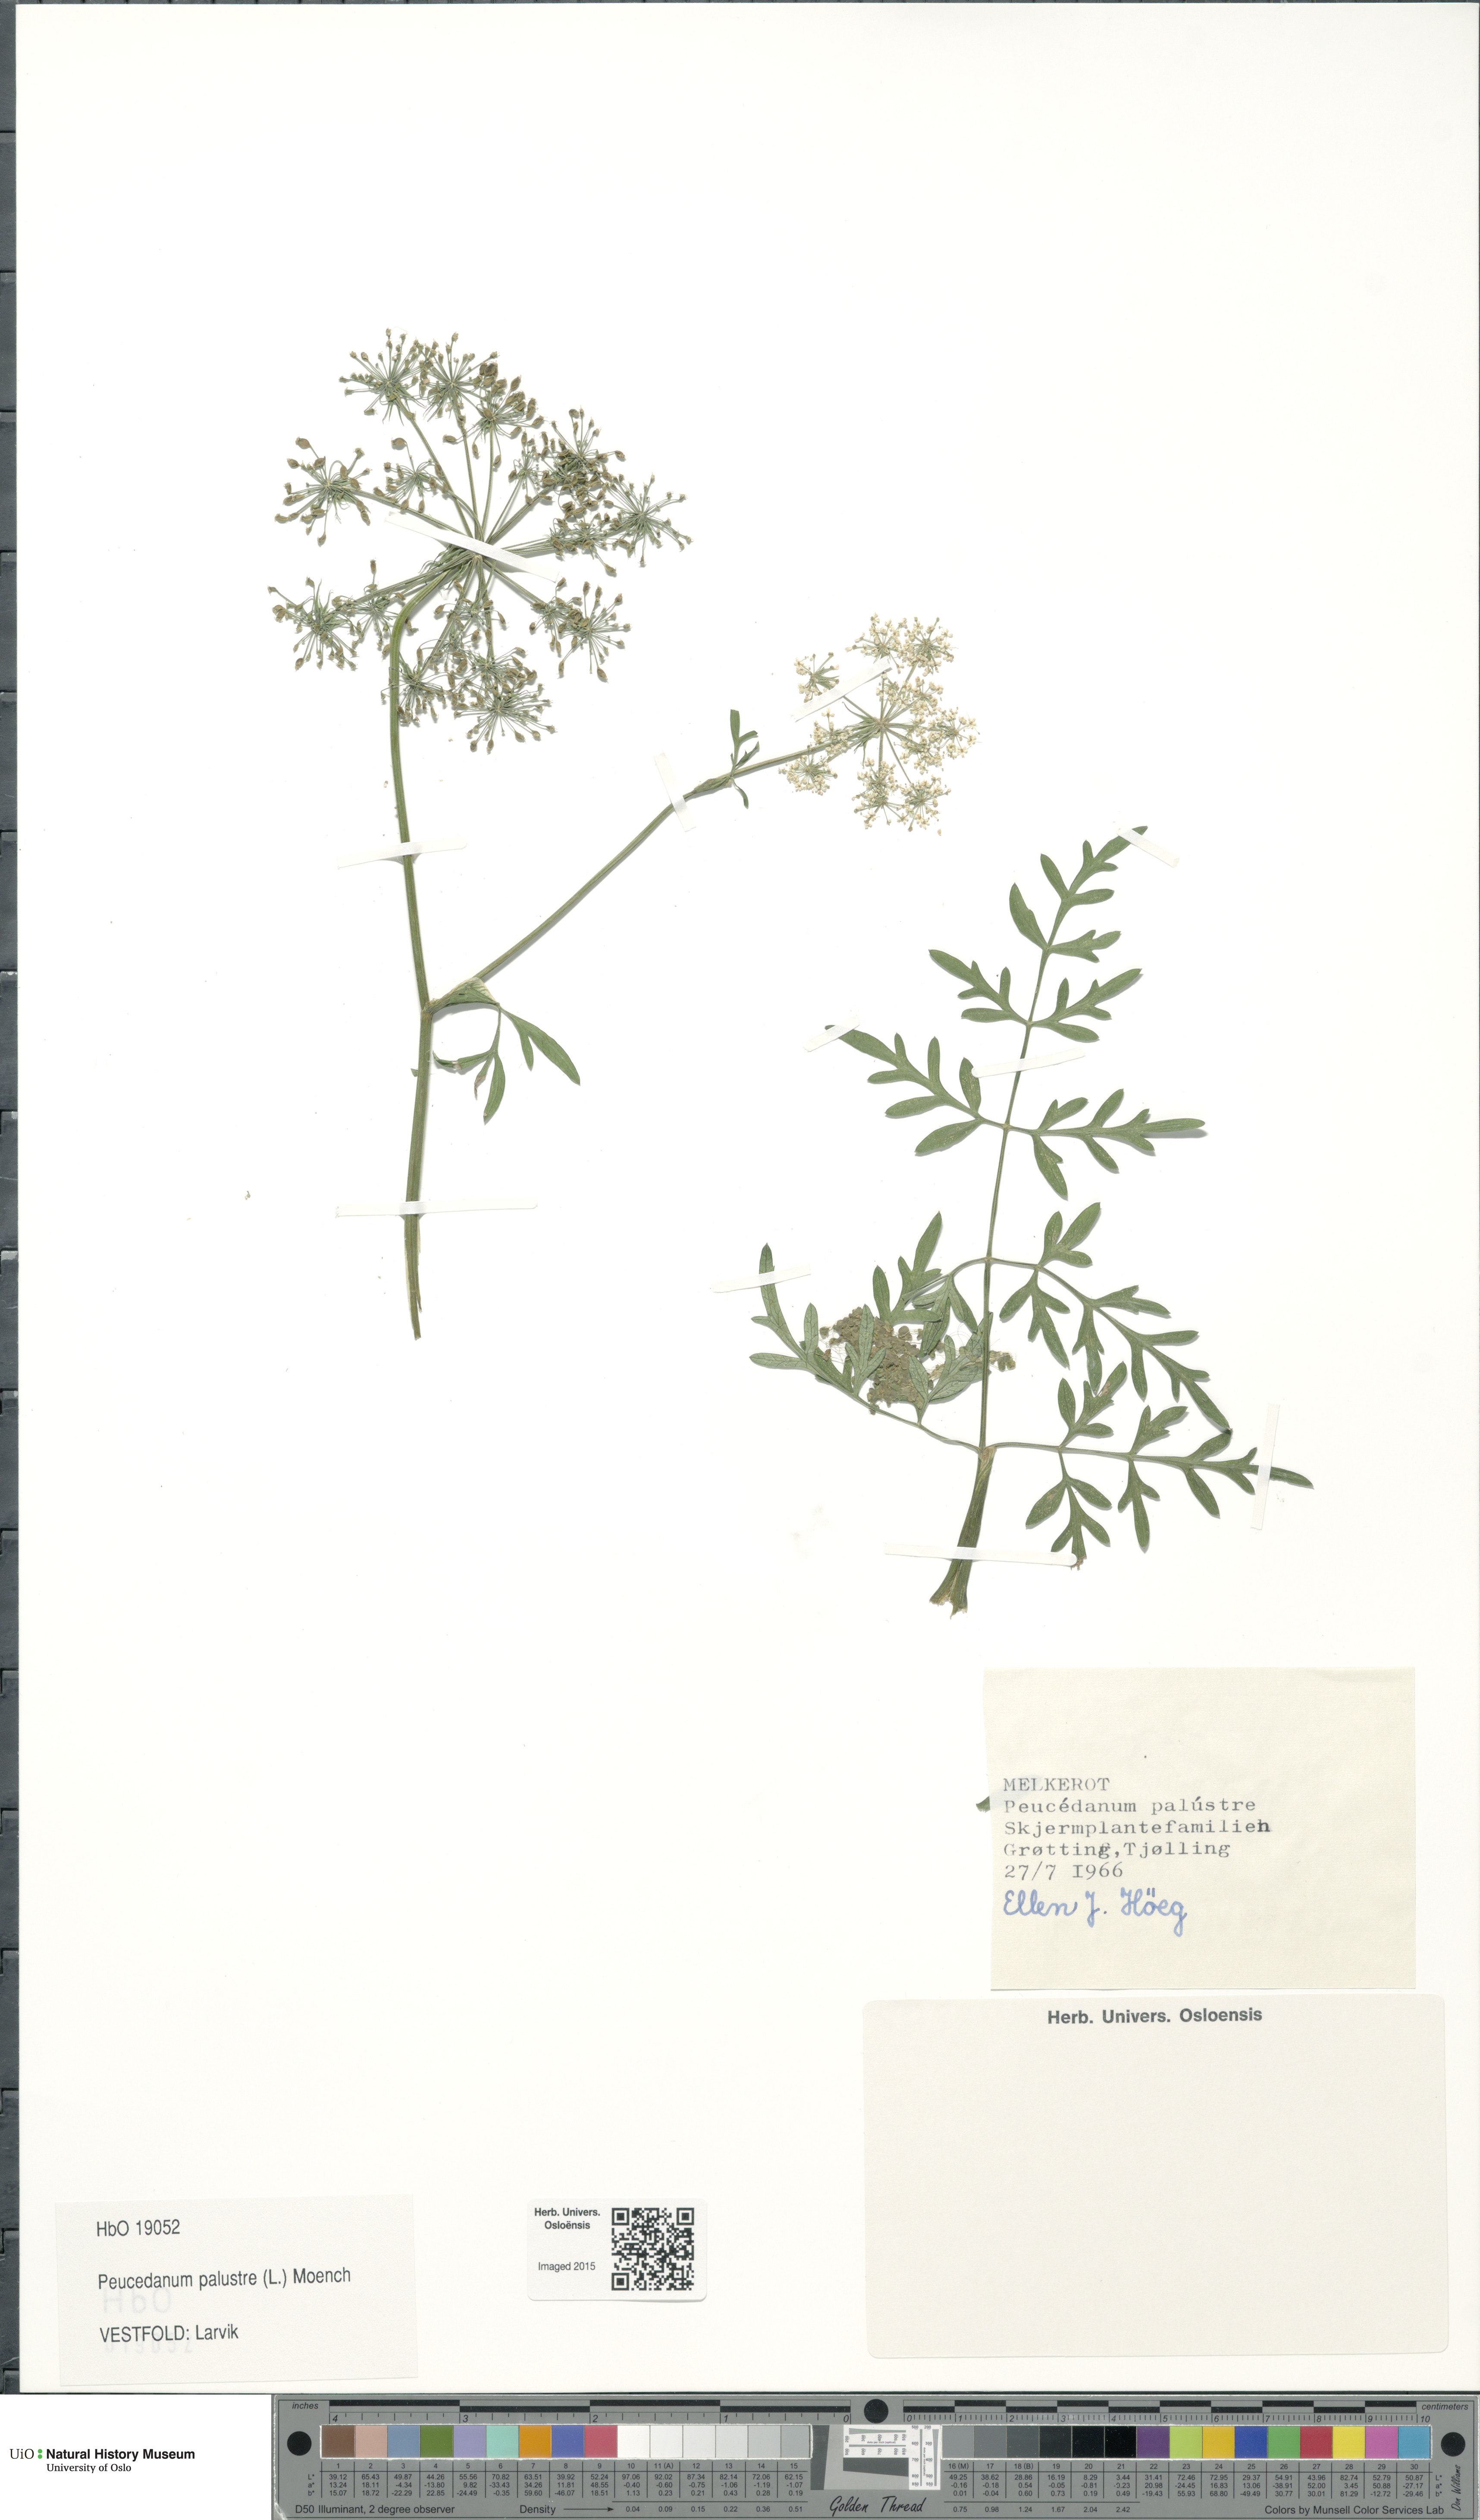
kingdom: Plantae
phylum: Tracheophyta
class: Magnoliopsida
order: Apiales
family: Apiaceae
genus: Thysselinum
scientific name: Thysselinum palustre
